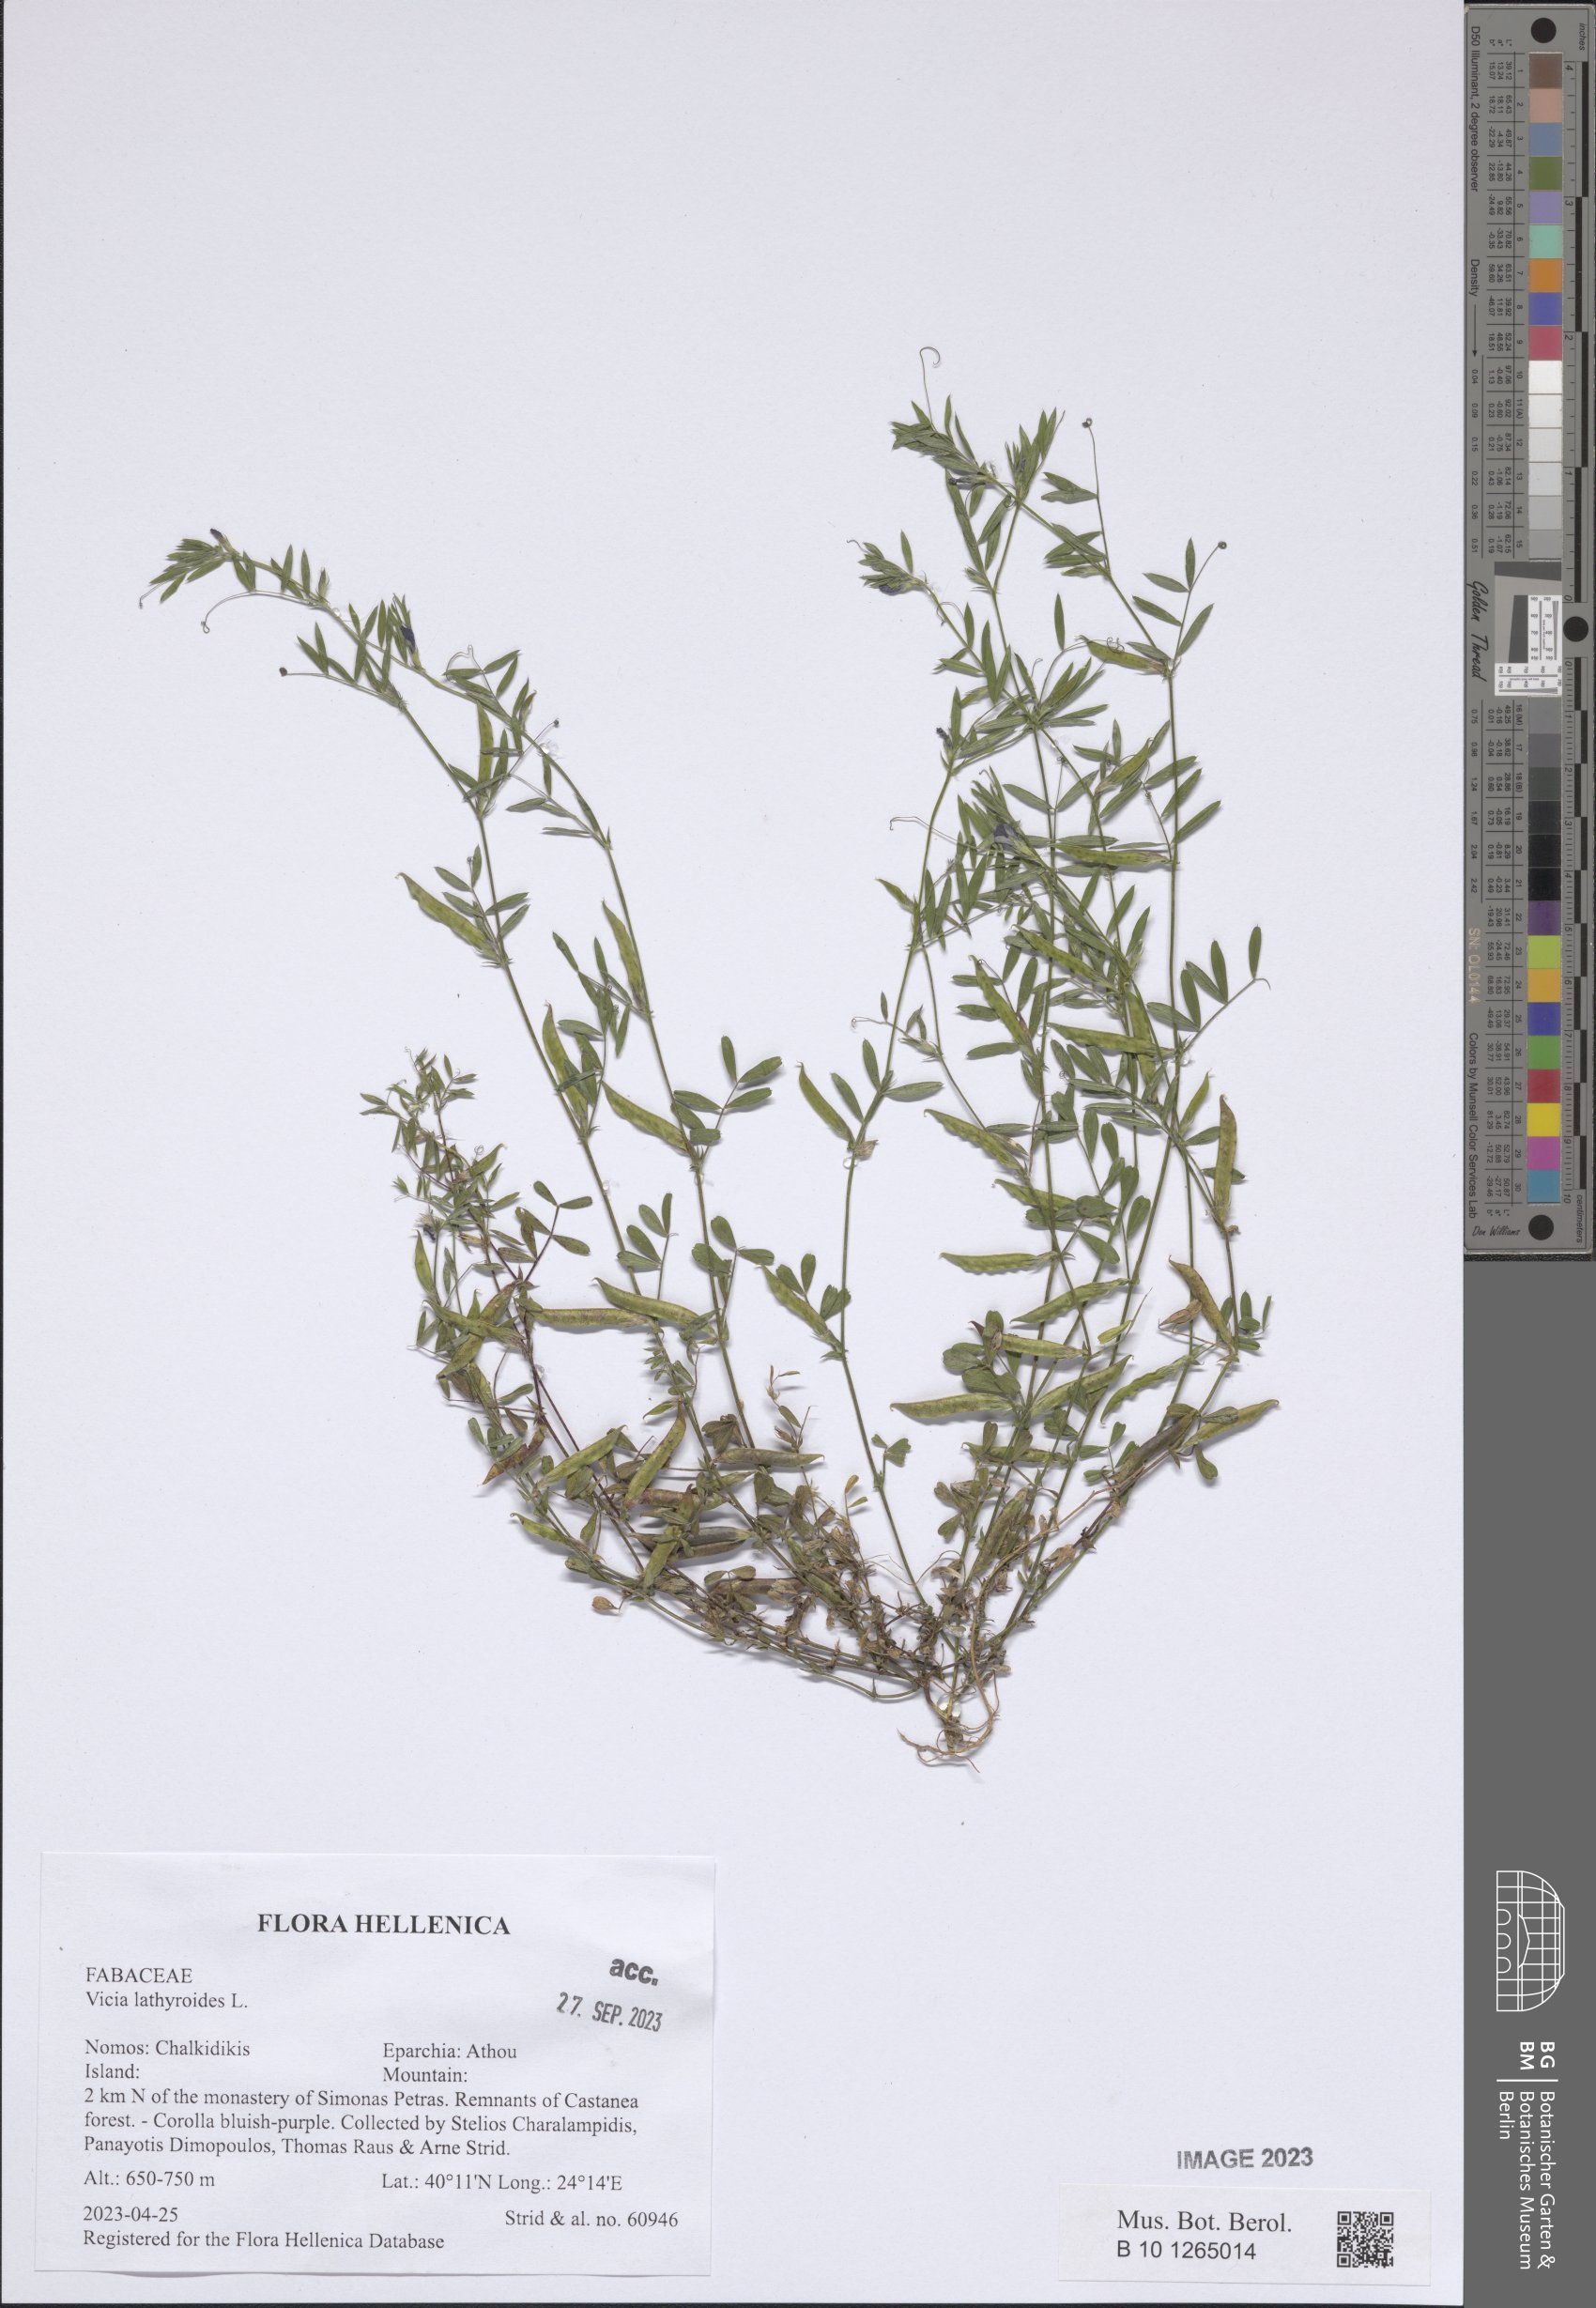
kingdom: Plantae
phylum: Tracheophyta
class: Magnoliopsida
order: Fabales
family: Fabaceae
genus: Vicia
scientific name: Vicia lathyroides
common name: Spring vetch
